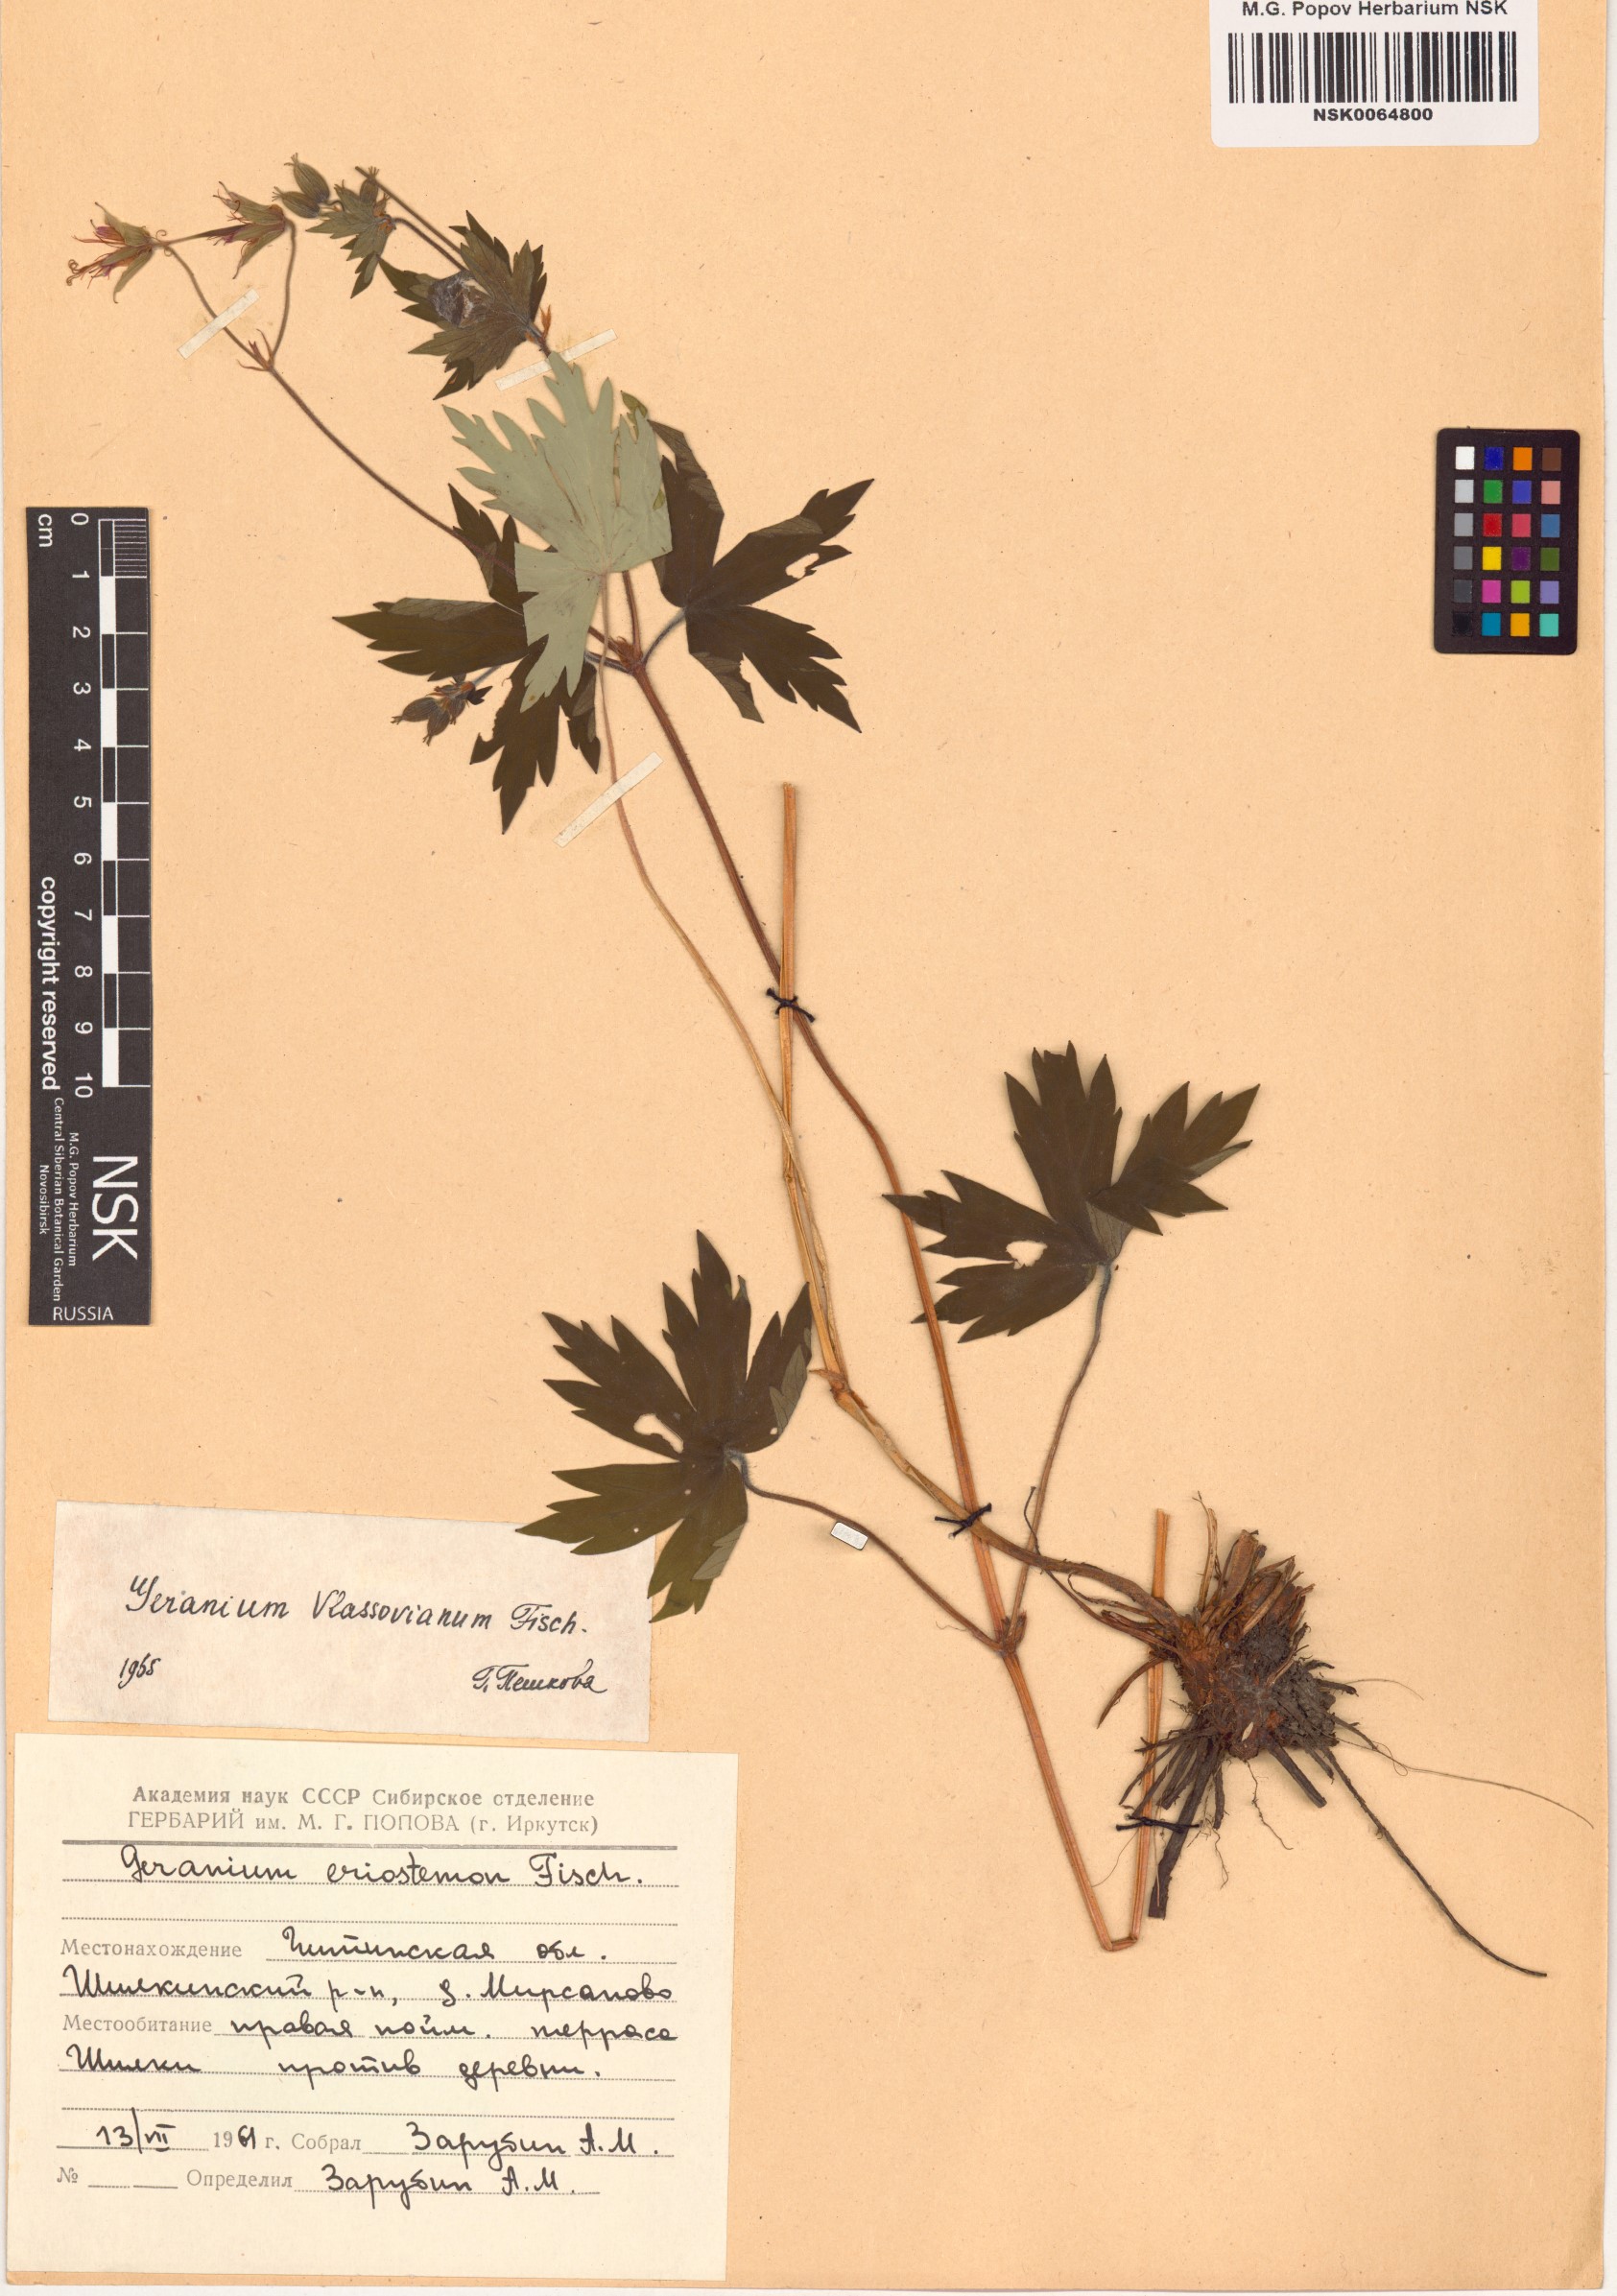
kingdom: Plantae
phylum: Tracheophyta
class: Magnoliopsida
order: Geraniales
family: Geraniaceae
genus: Geranium
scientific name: Geranium wlassovianum
